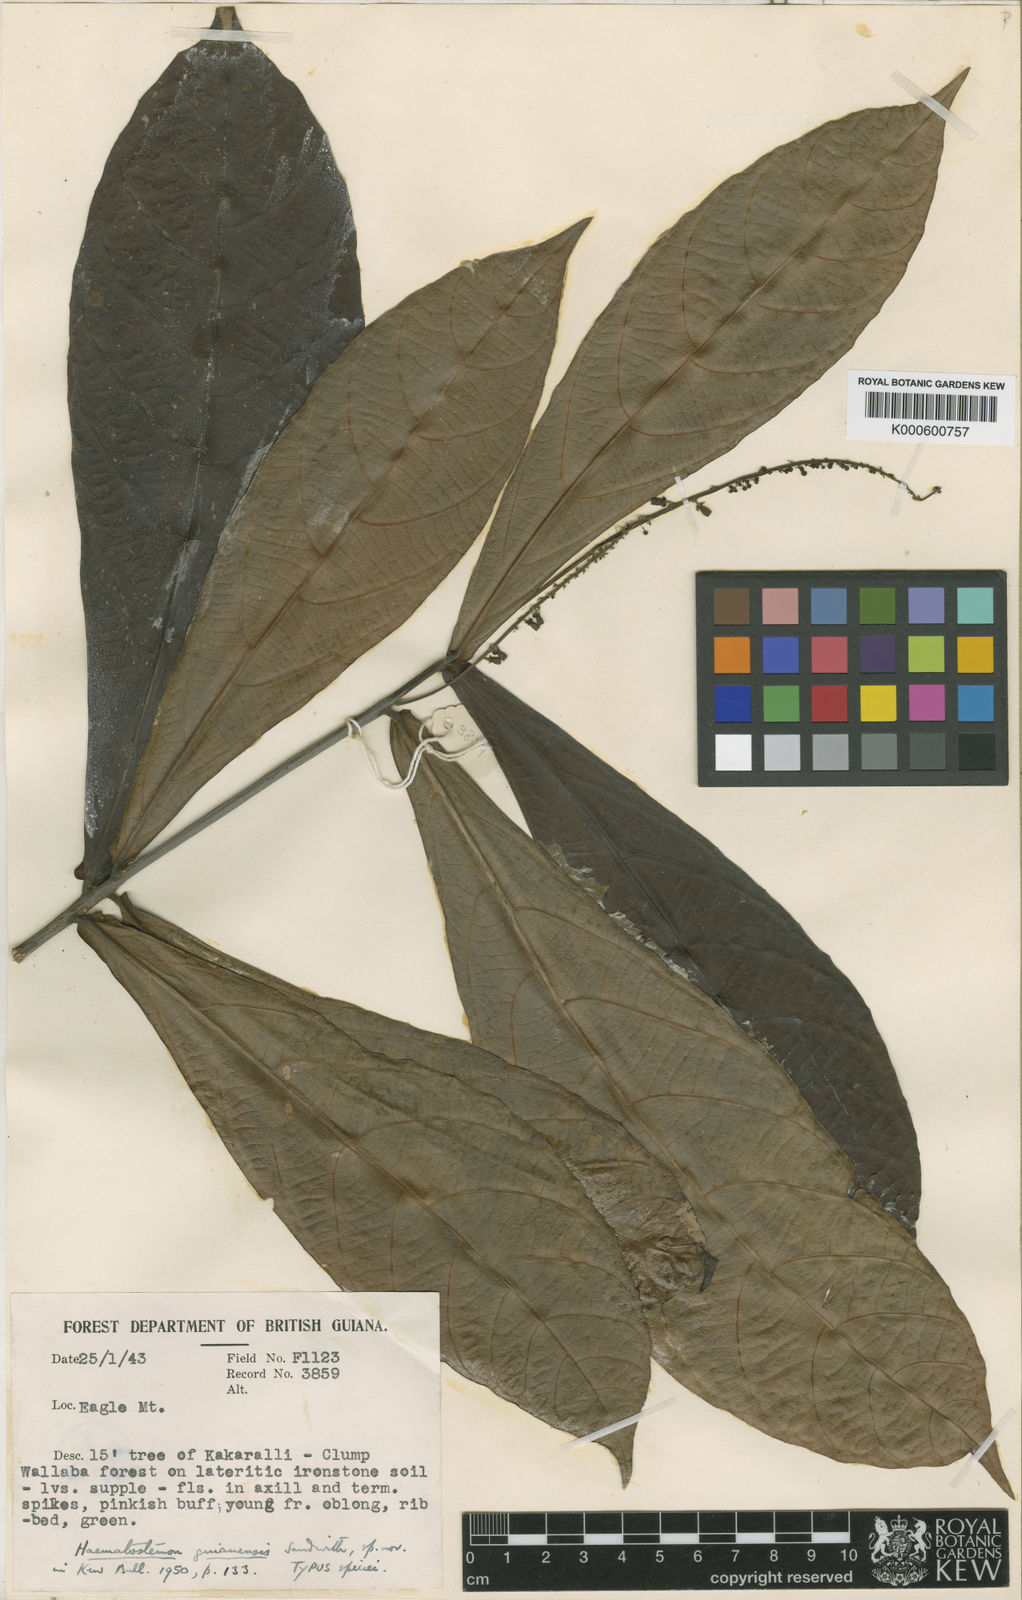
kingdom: Plantae
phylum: Tracheophyta
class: Magnoliopsida
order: Malpighiales
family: Euphorbiaceae
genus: Haematostemon
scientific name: Haematostemon guianensis
